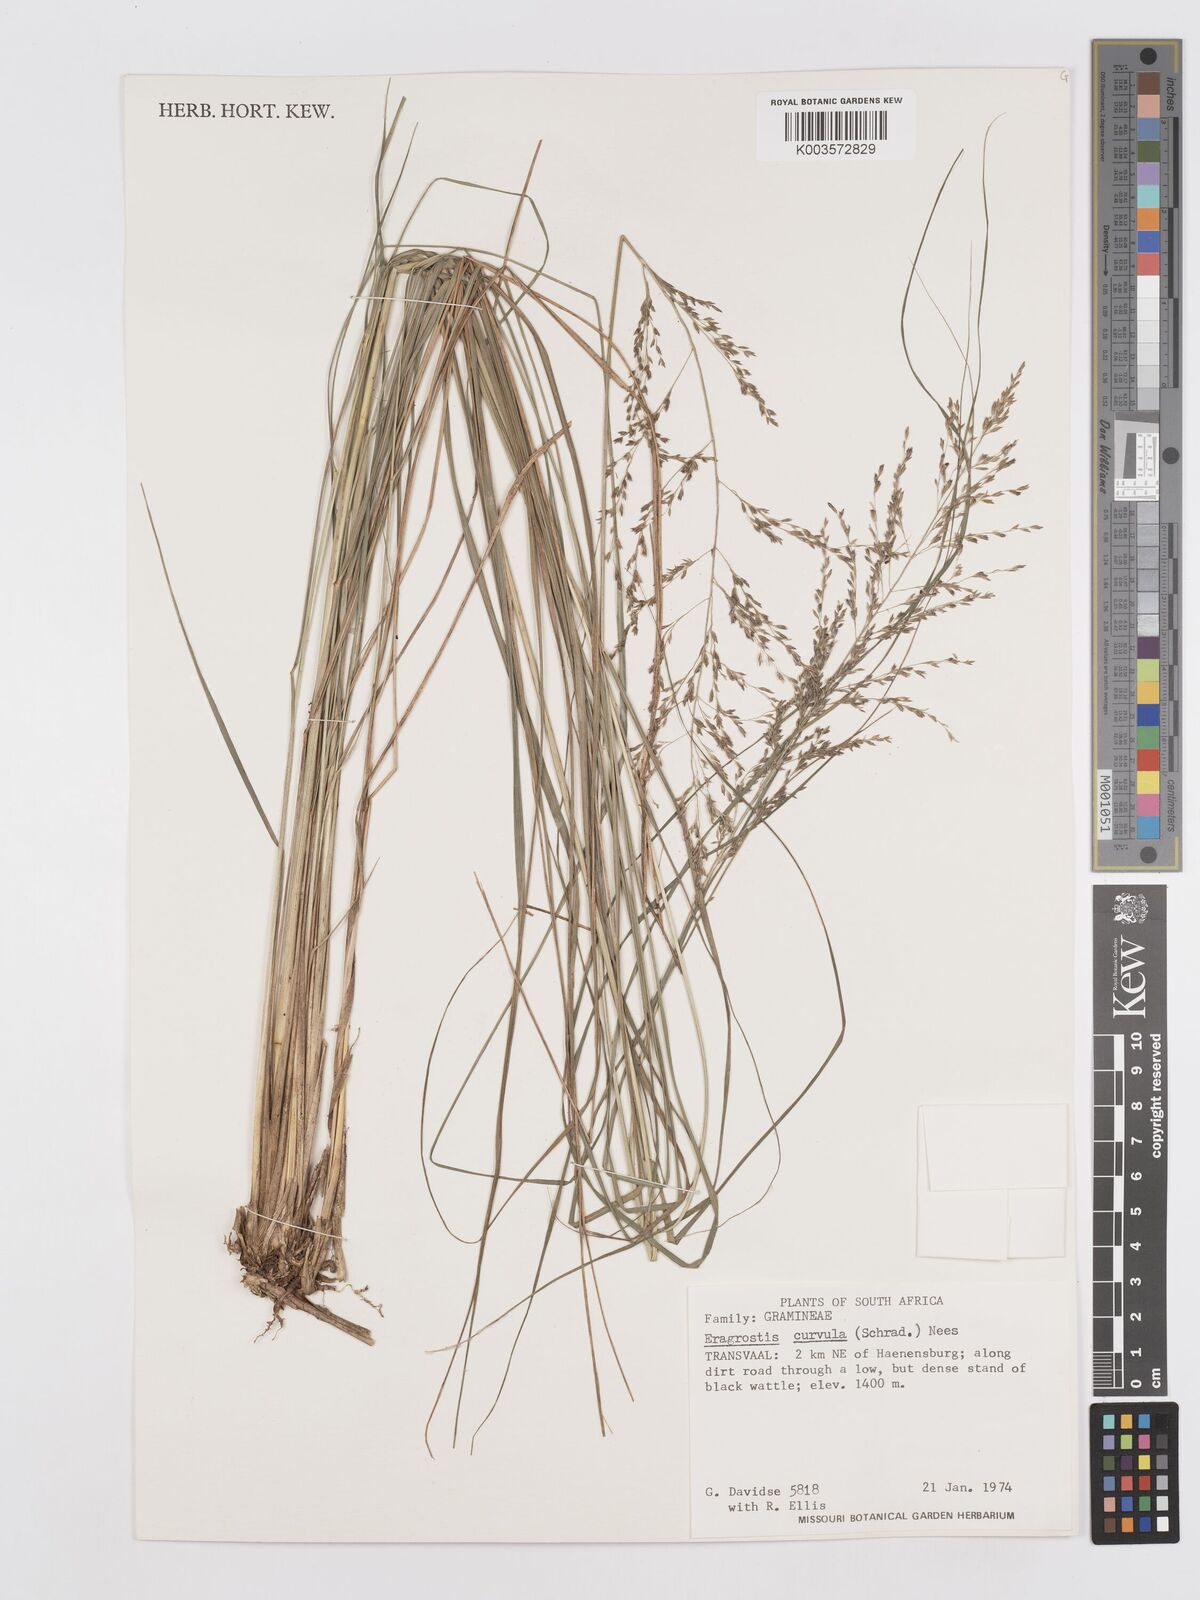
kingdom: Plantae
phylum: Tracheophyta
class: Liliopsida
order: Poales
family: Poaceae
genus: Eragrostis
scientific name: Eragrostis curvula
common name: African love-grass
